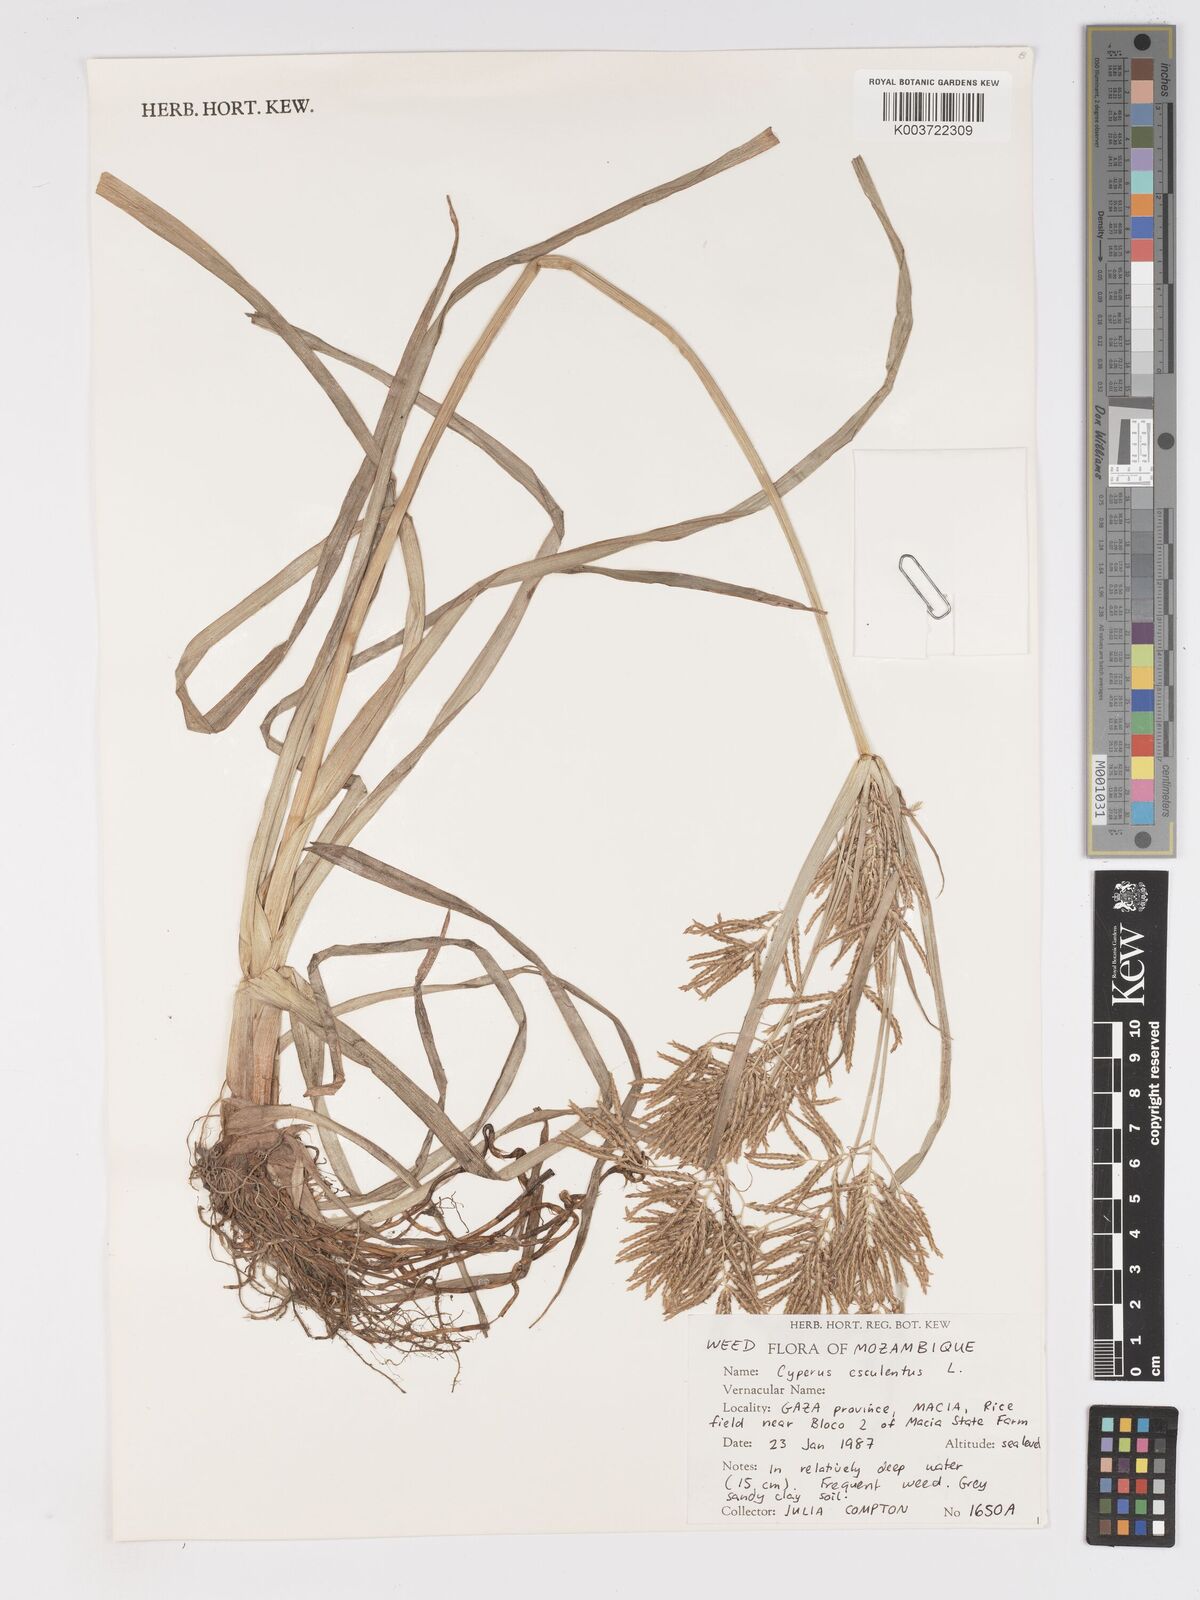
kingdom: Plantae
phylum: Tracheophyta
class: Liliopsida
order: Poales
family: Cyperaceae
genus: Cyperus
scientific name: Cyperus esculentus
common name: Yellow nutsedge
